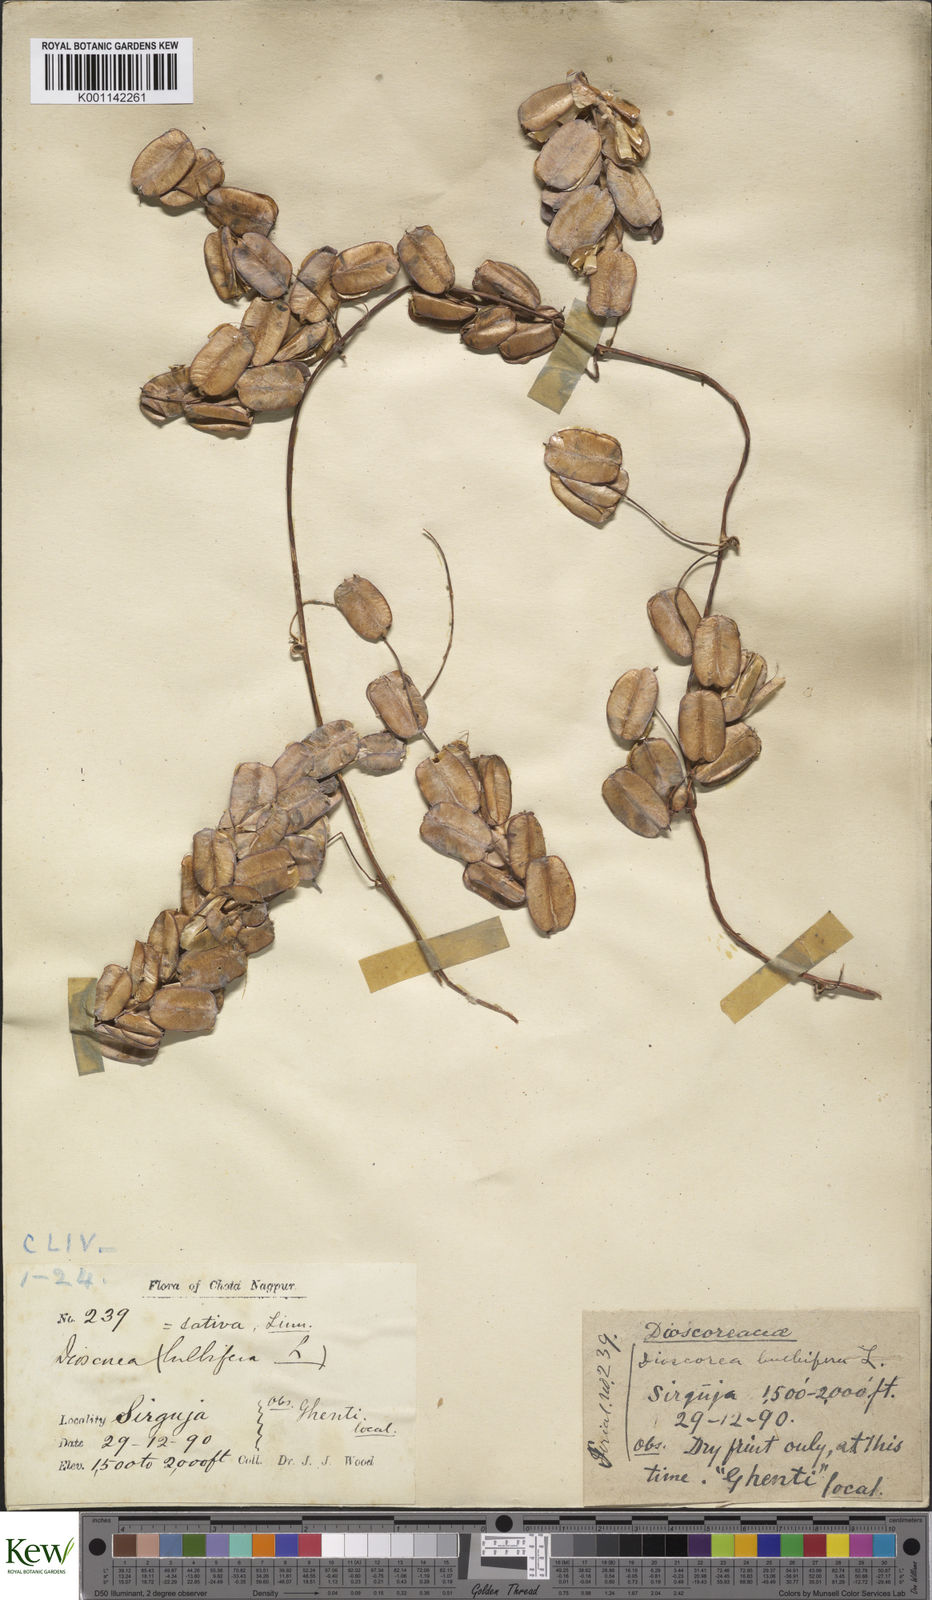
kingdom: Plantae
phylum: Tracheophyta
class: Liliopsida
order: Dioscoreales
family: Dioscoreaceae
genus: Dioscorea
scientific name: Dioscorea bulbifera
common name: Air yam
